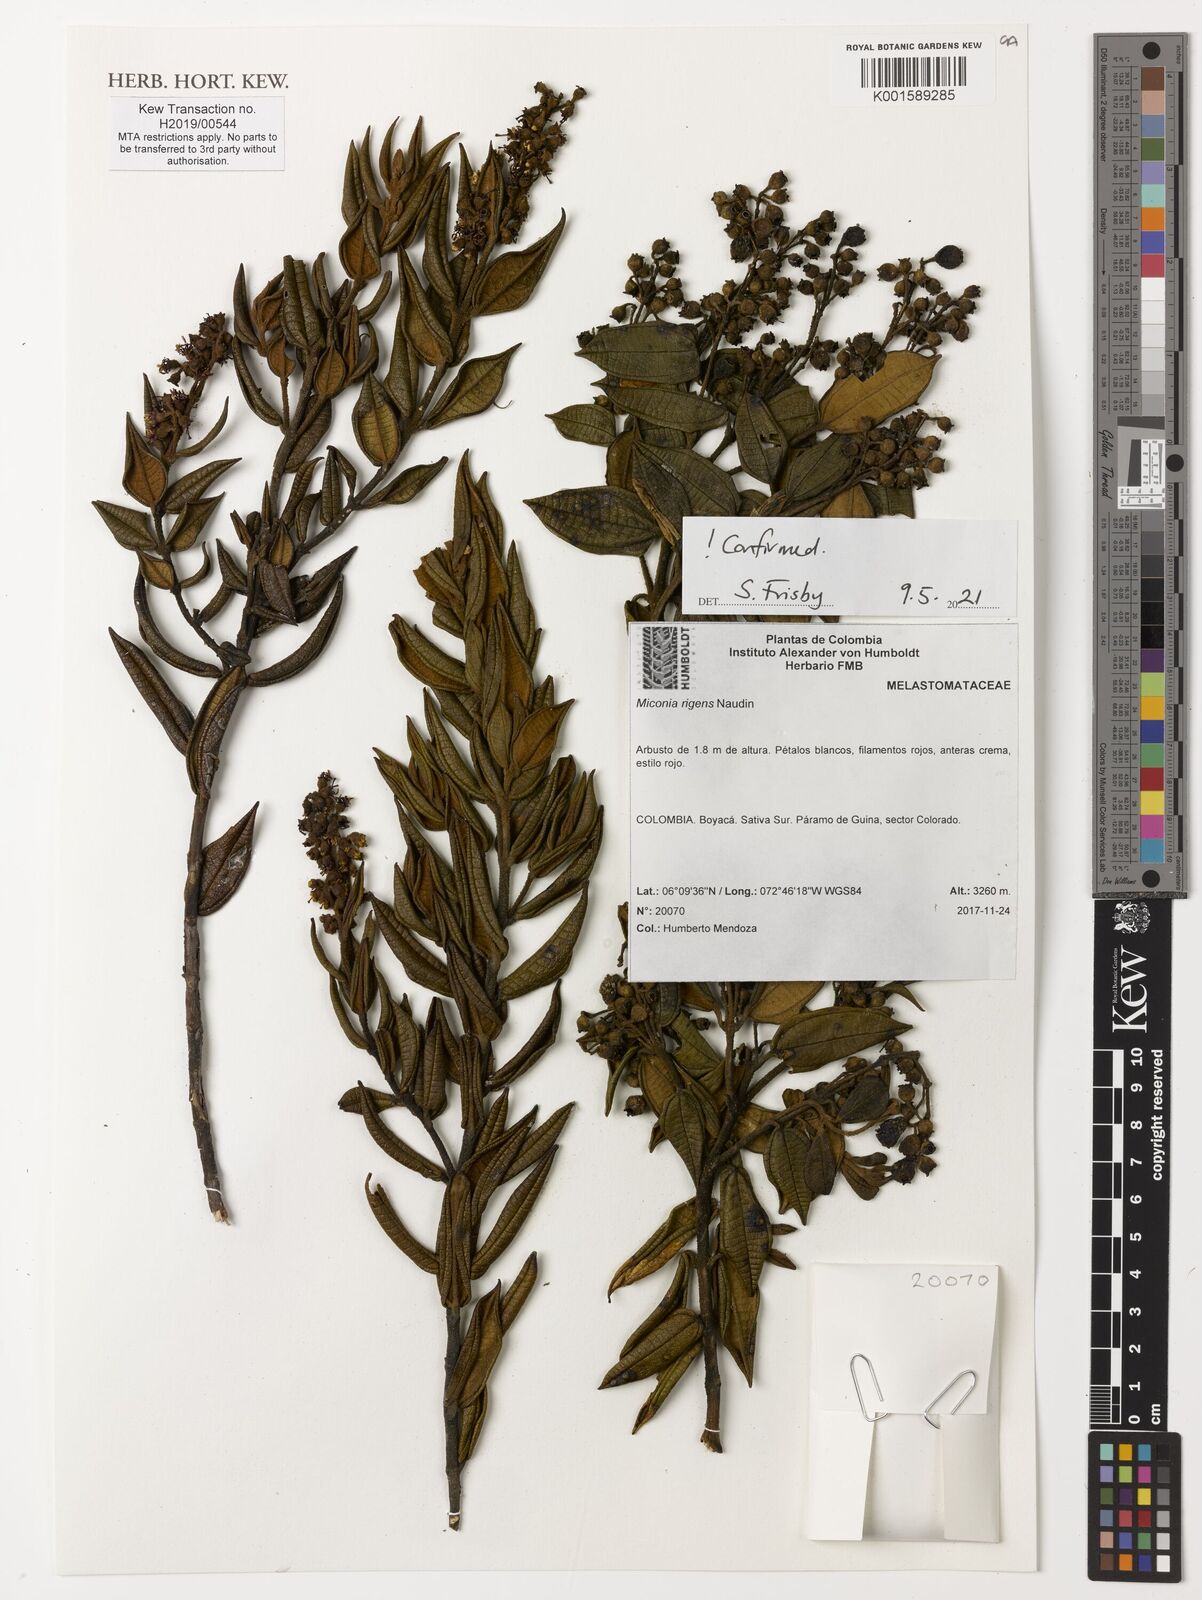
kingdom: Plantae
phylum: Tracheophyta
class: Magnoliopsida
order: Myrtales
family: Melastomataceae
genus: Miconia
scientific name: Miconia rigens
